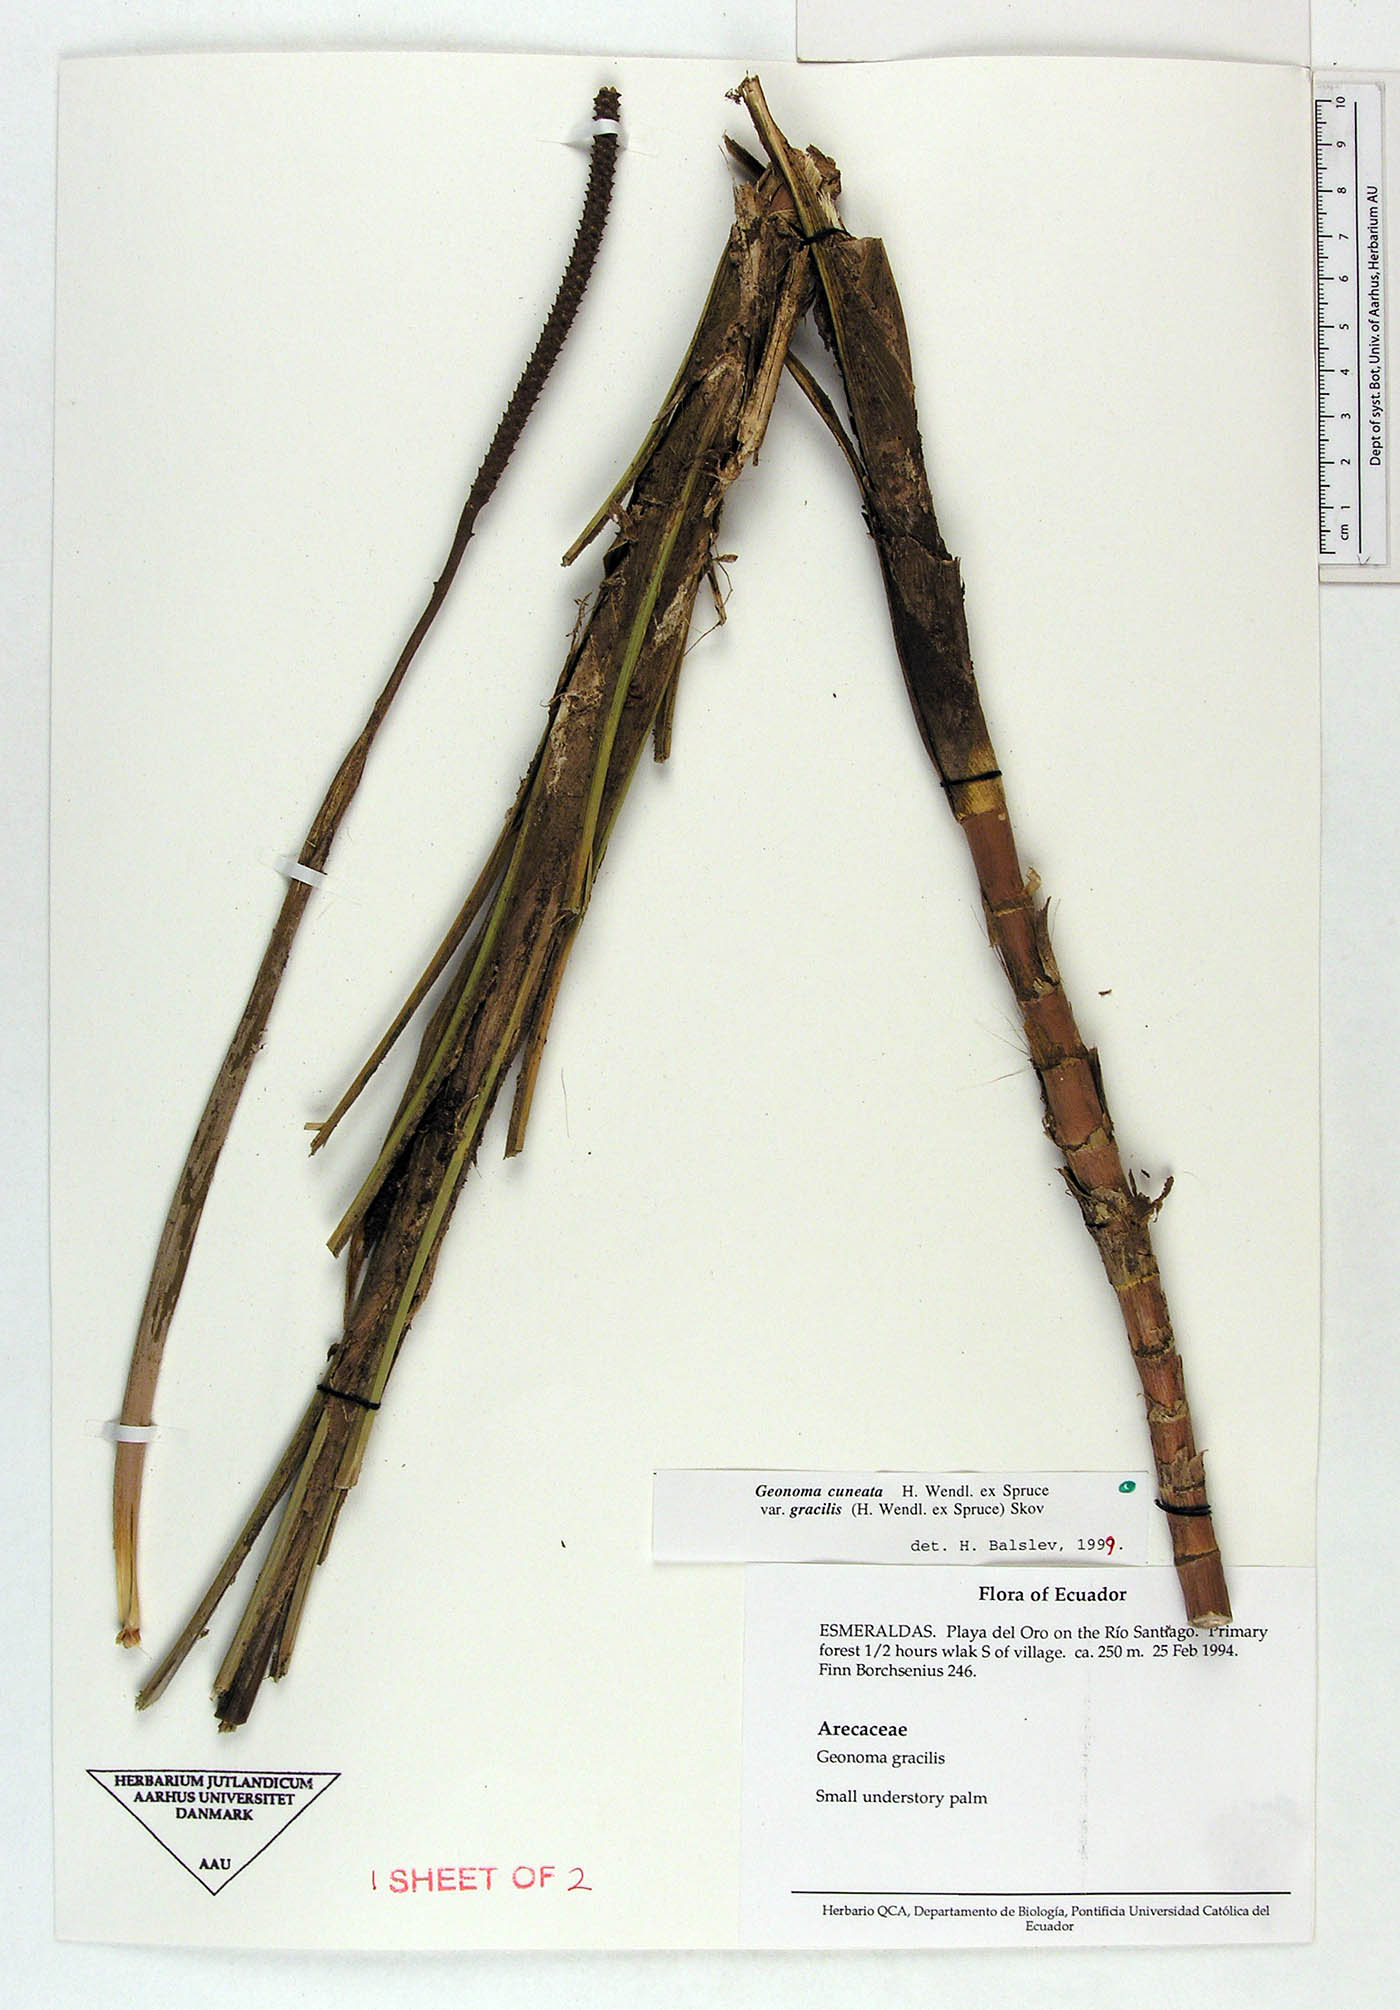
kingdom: Plantae
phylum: Tracheophyta
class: Liliopsida
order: Arecales
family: Arecaceae
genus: Geonoma
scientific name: Geonoma cuneata
